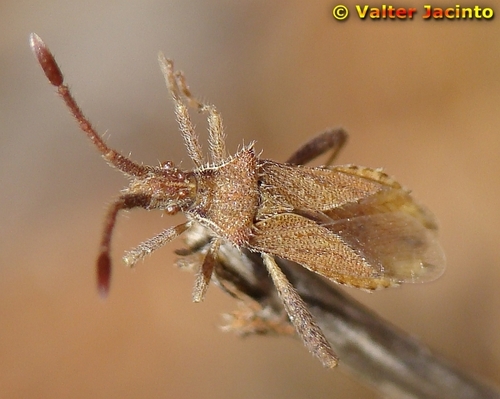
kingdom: Animalia
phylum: Arthropoda
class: Insecta
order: Hemiptera
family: Coreidae
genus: Coriomeris
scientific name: Coriomeris affinis
